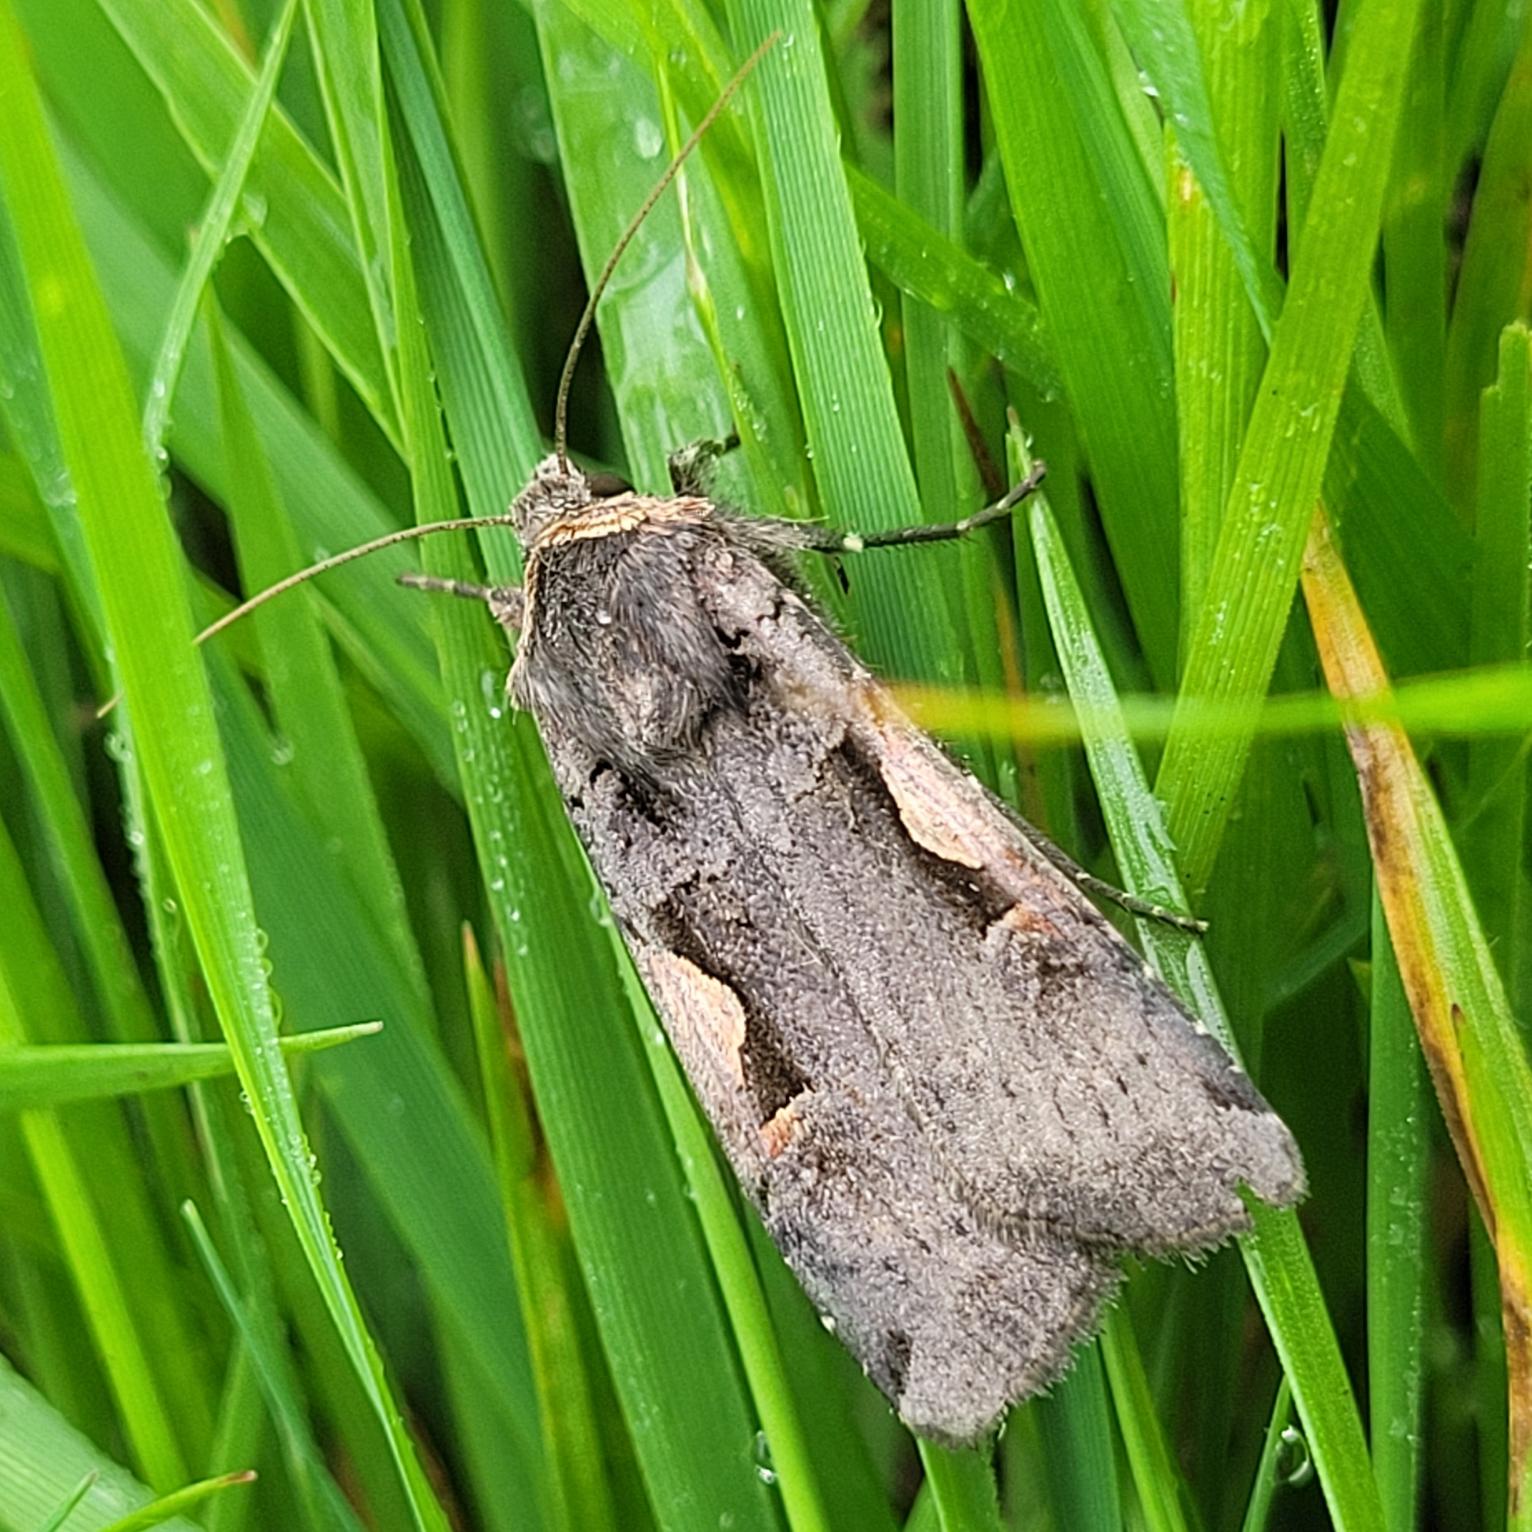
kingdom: Animalia
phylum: Arthropoda
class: Insecta
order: Lepidoptera
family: Noctuidae
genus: Xestia
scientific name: Xestia c-nigrum
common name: Det sorte c
